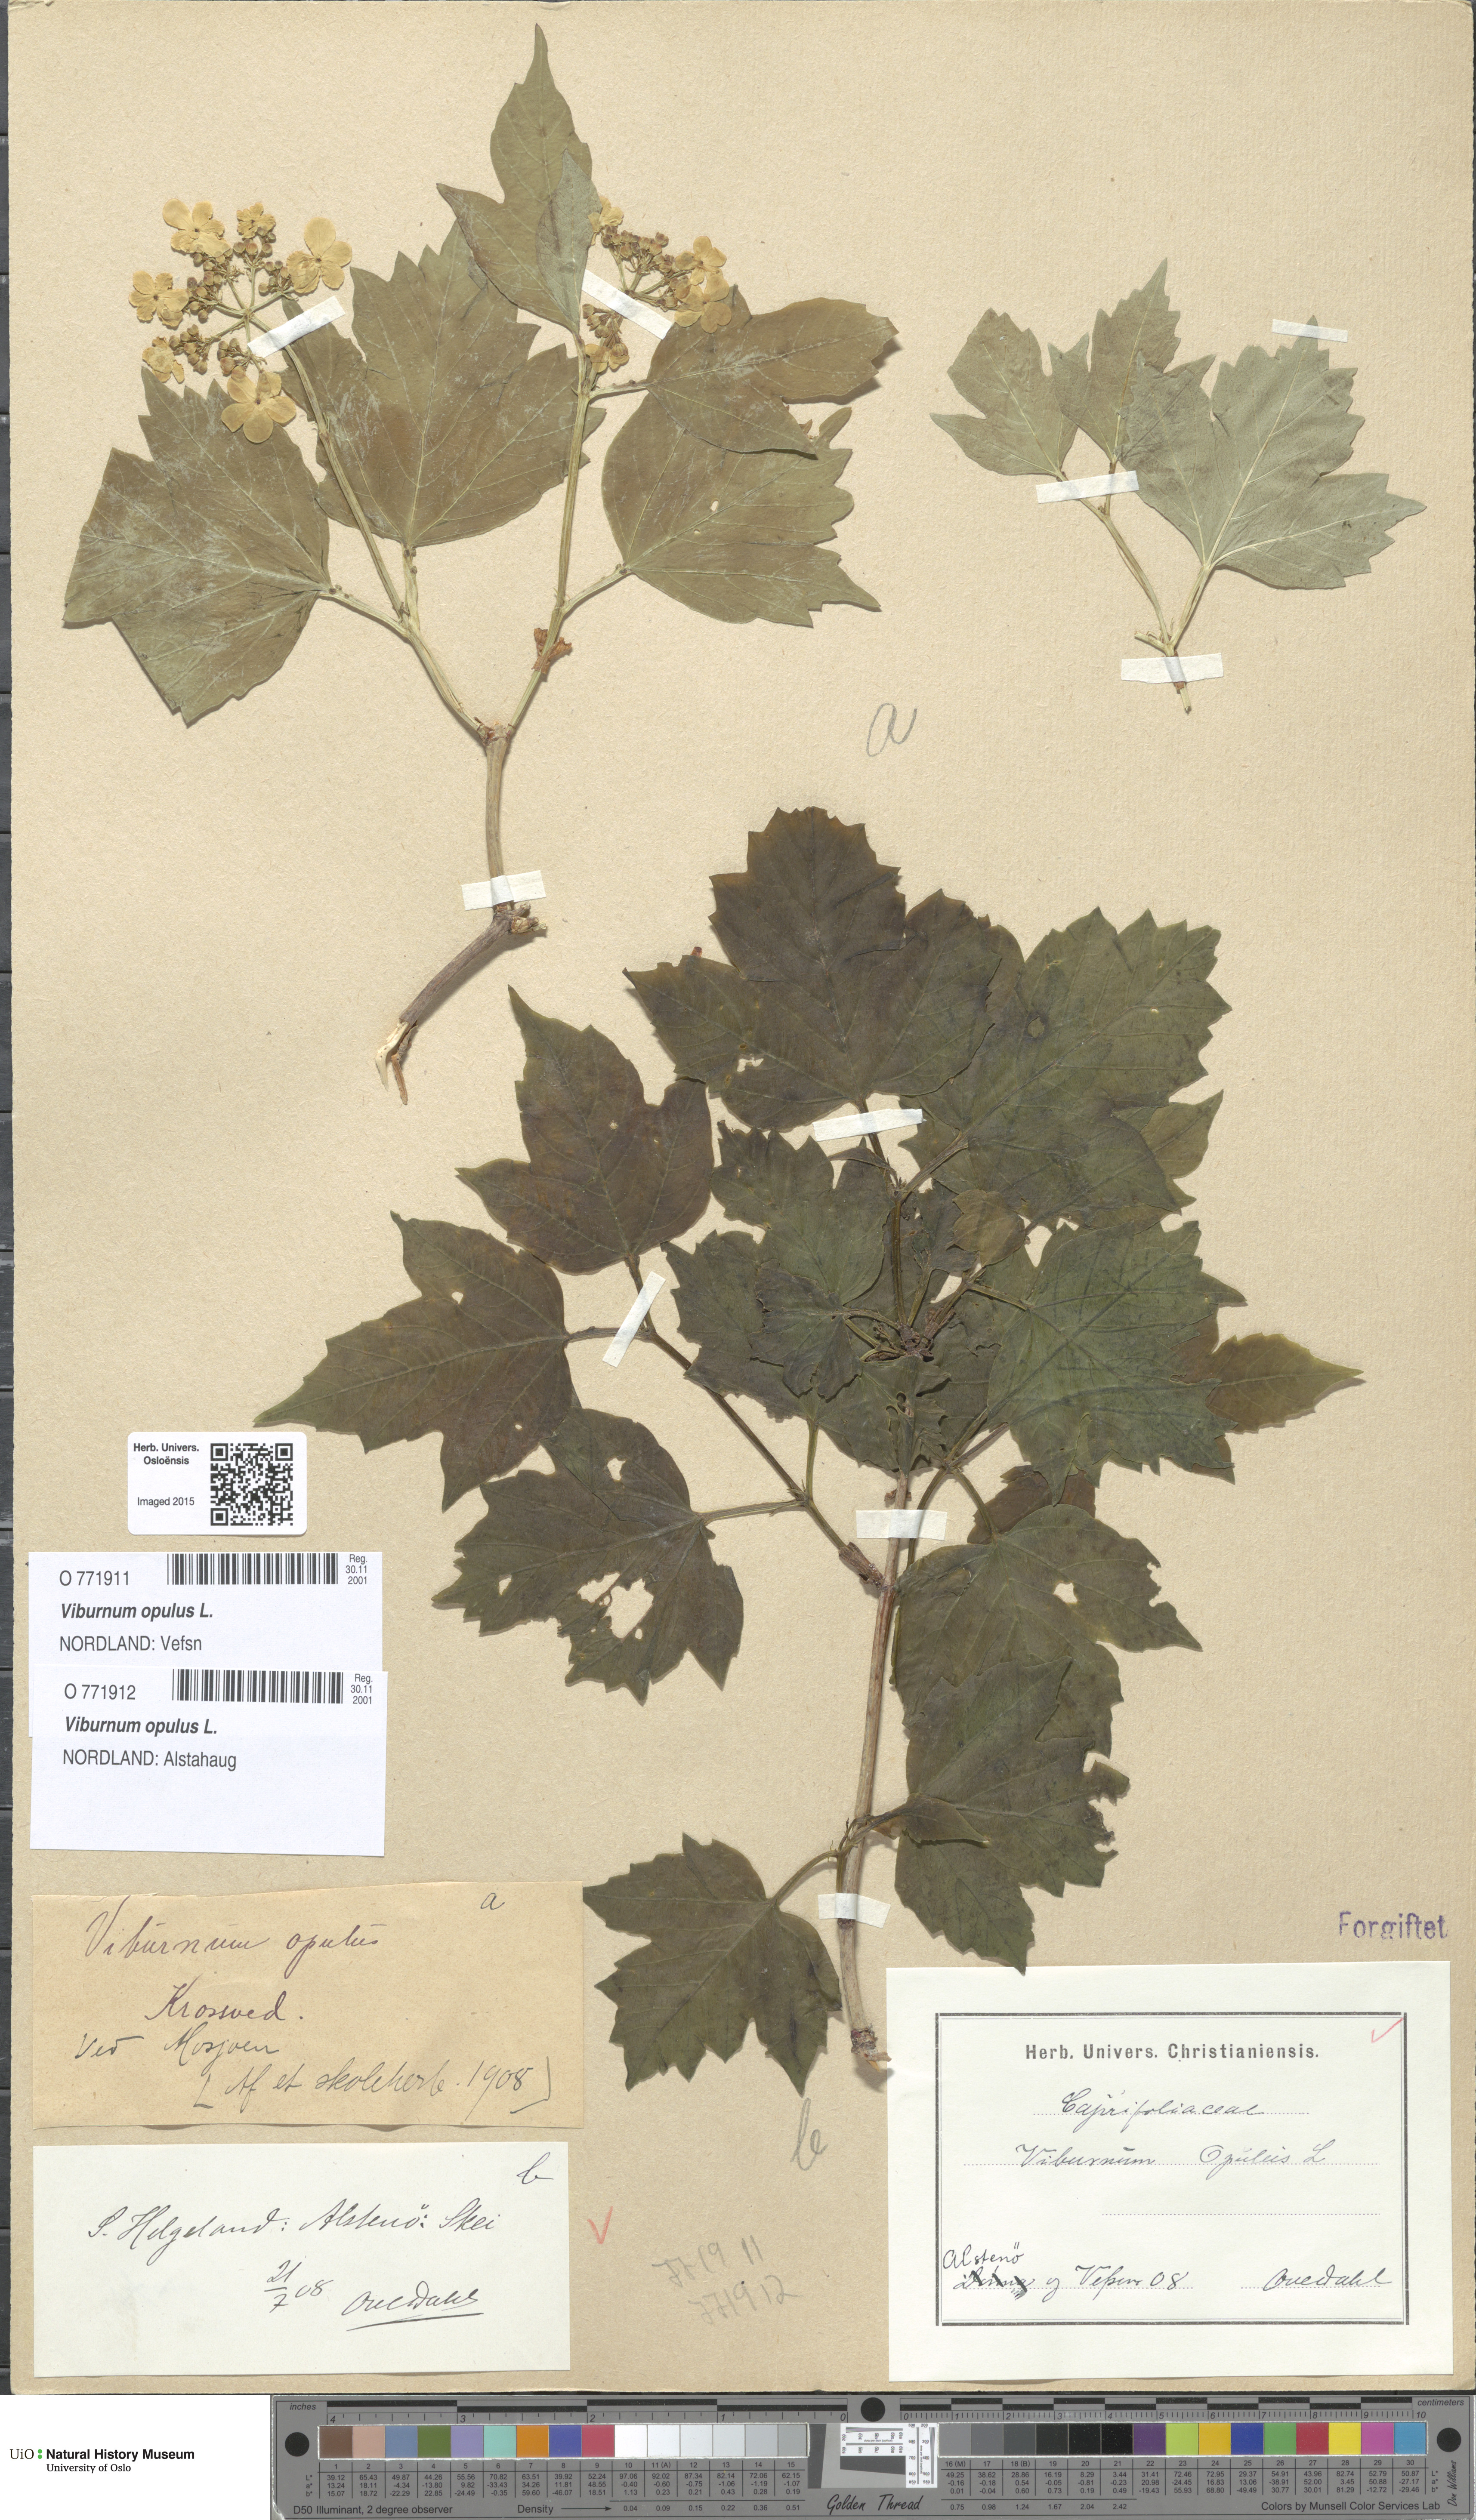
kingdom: Plantae
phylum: Tracheophyta
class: Magnoliopsida
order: Dipsacales
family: Viburnaceae
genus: Viburnum
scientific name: Viburnum opulus
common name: Guelder-rose
